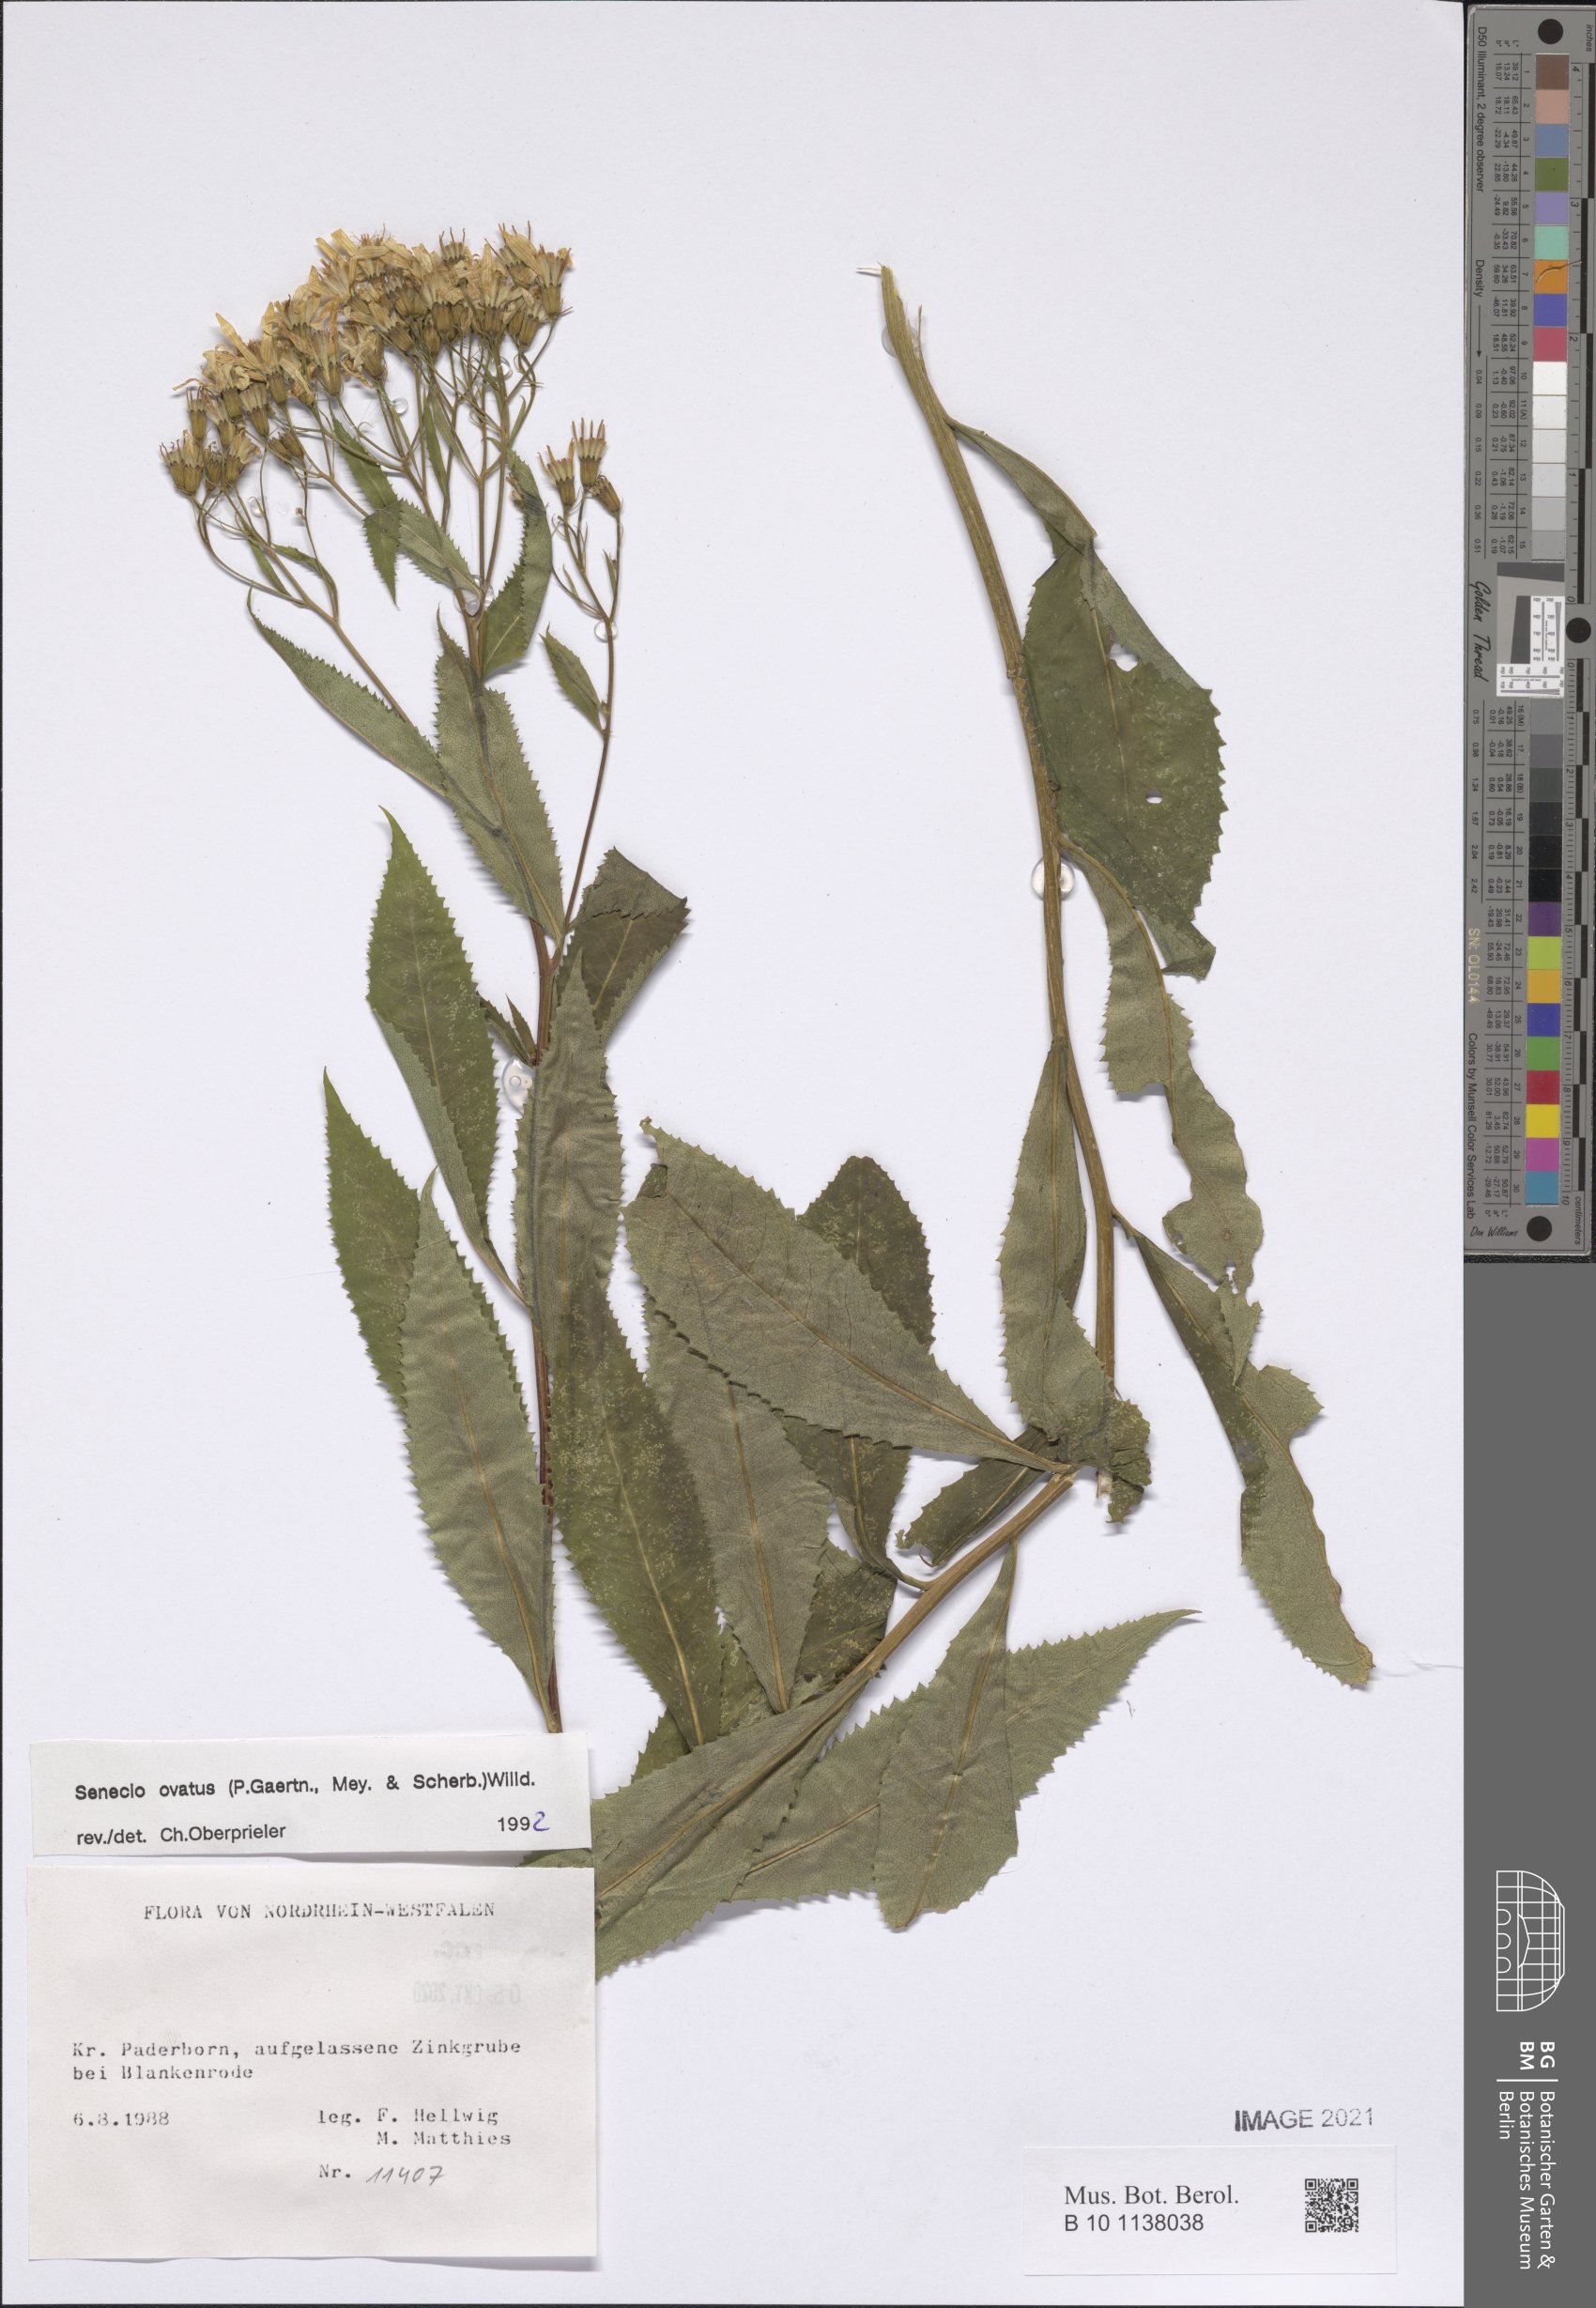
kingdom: Plantae
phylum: Tracheophyta
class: Magnoliopsida
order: Asterales
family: Asteraceae
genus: Senecio
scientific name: Senecio ovatus
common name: Wood ragwort
